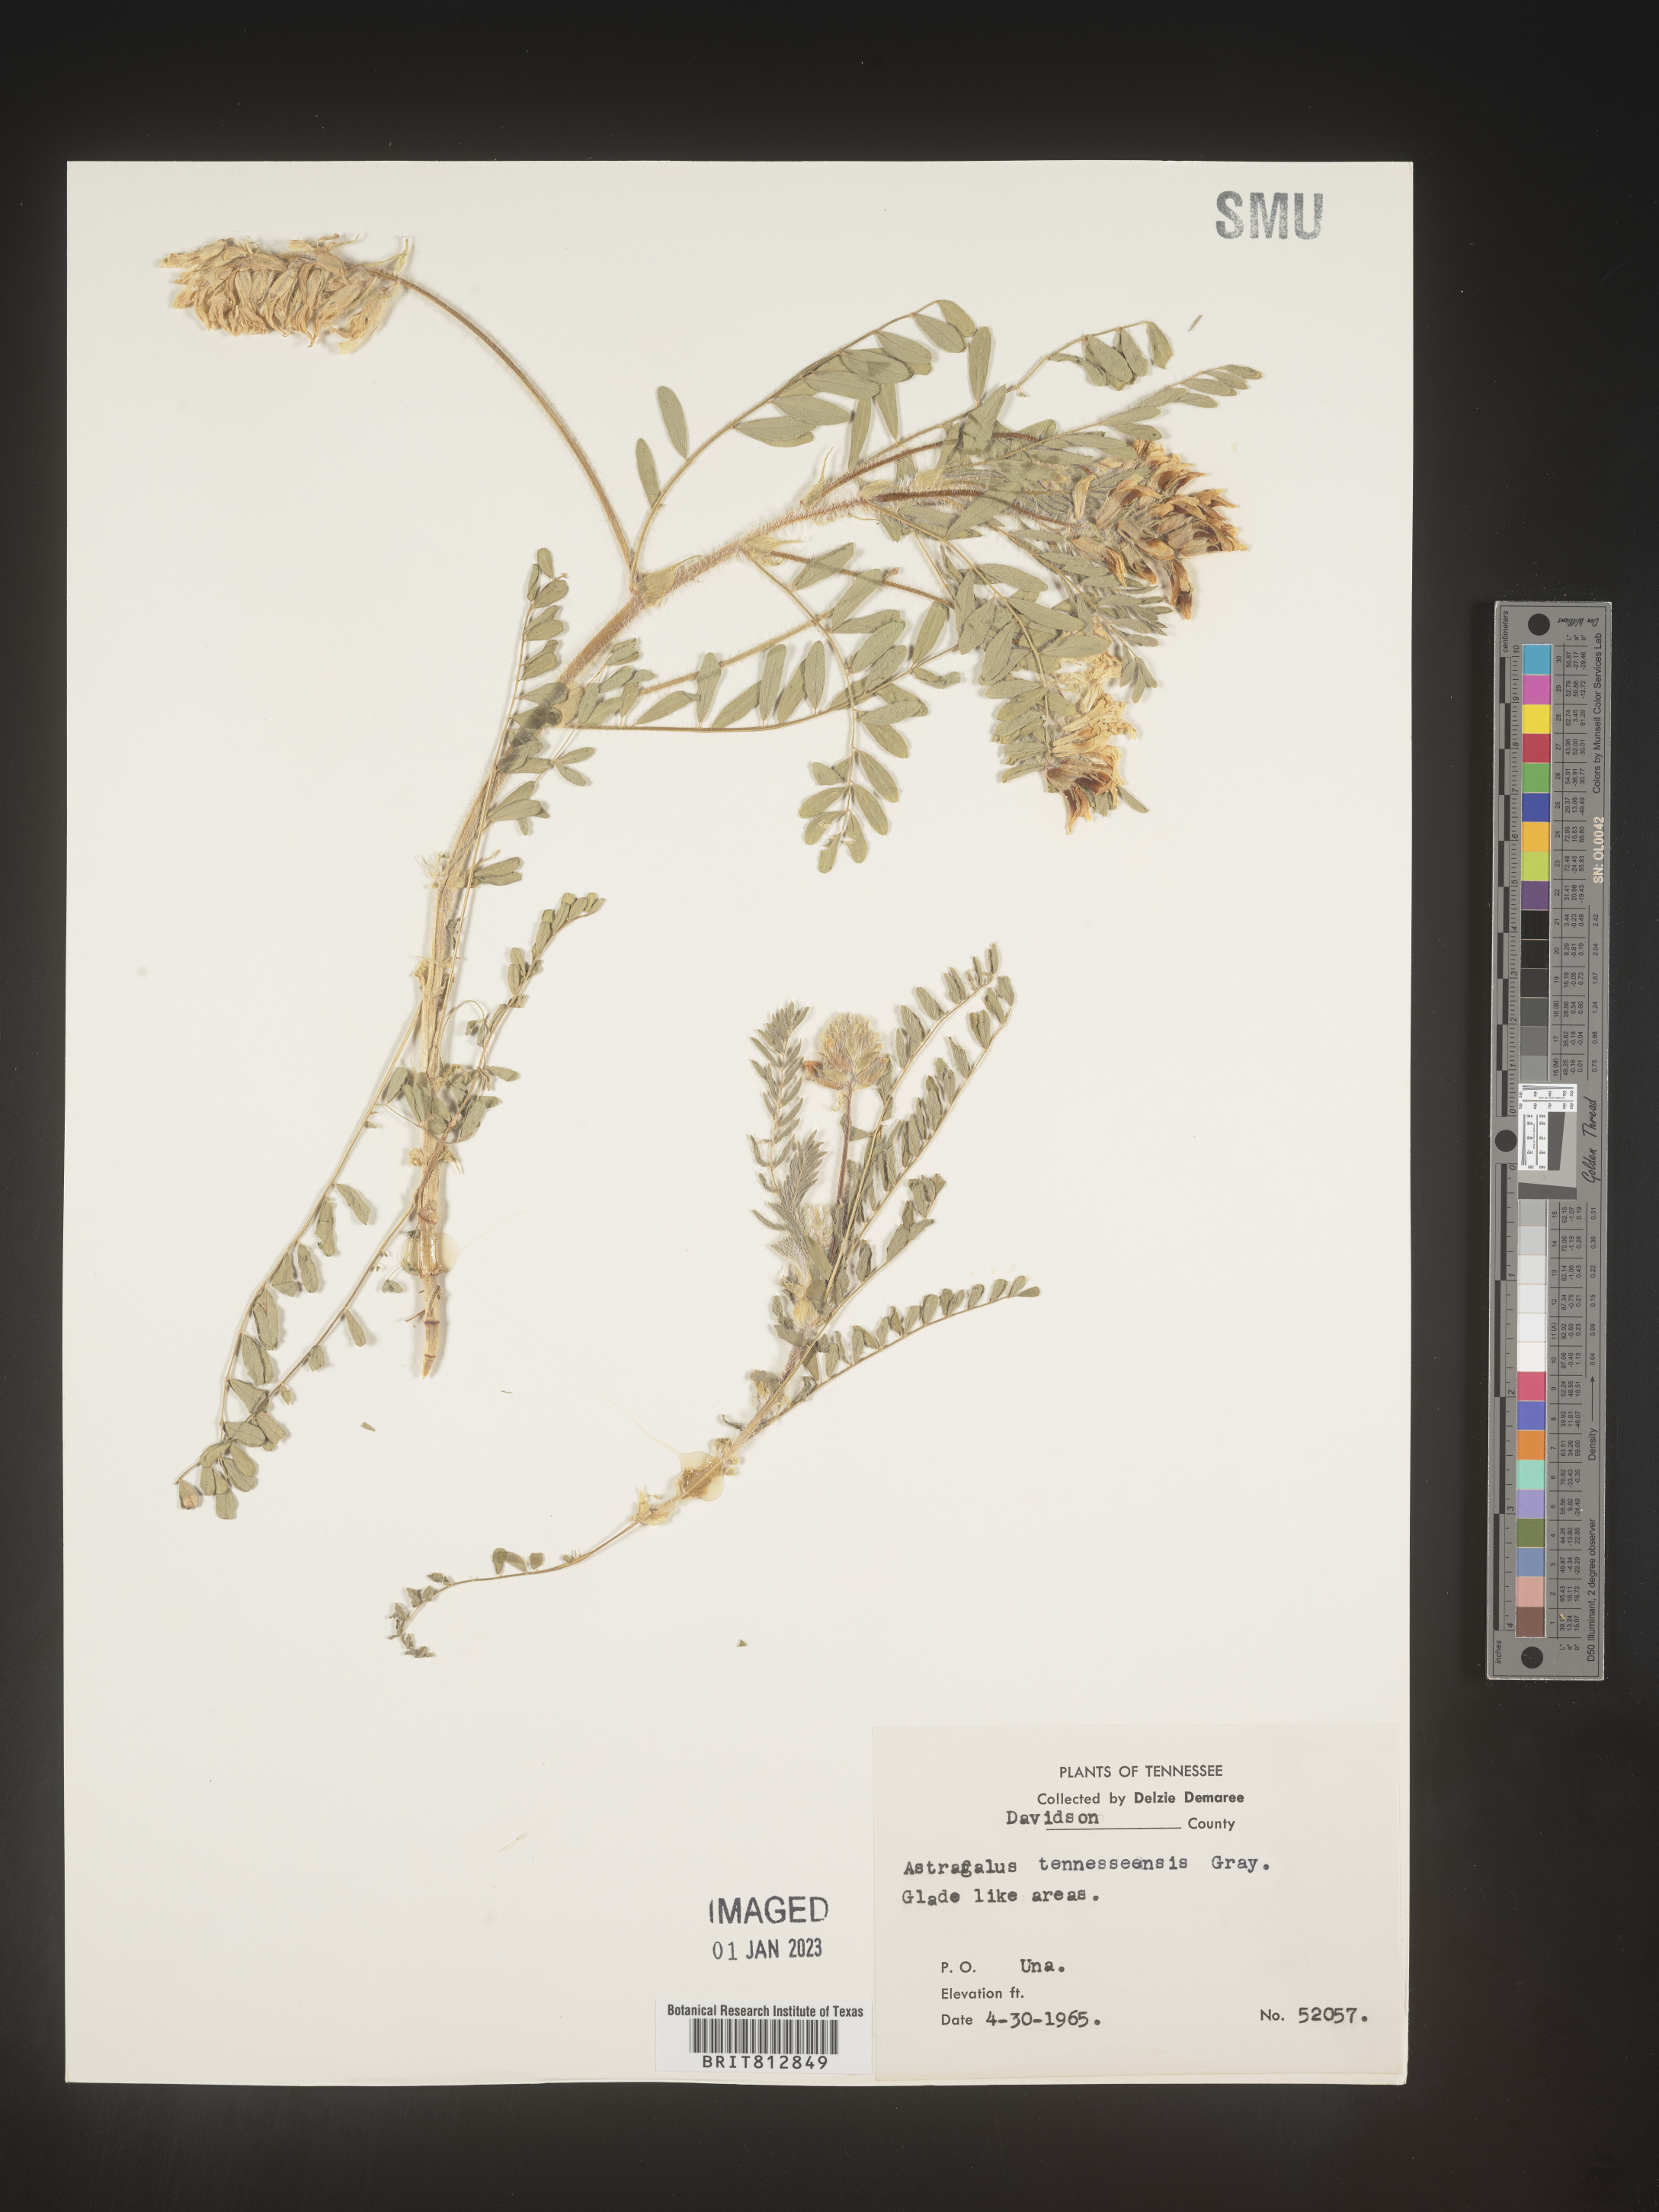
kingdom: Plantae
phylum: Tracheophyta
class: Magnoliopsida
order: Fabales
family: Fabaceae
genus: Astragalus
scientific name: Astragalus
